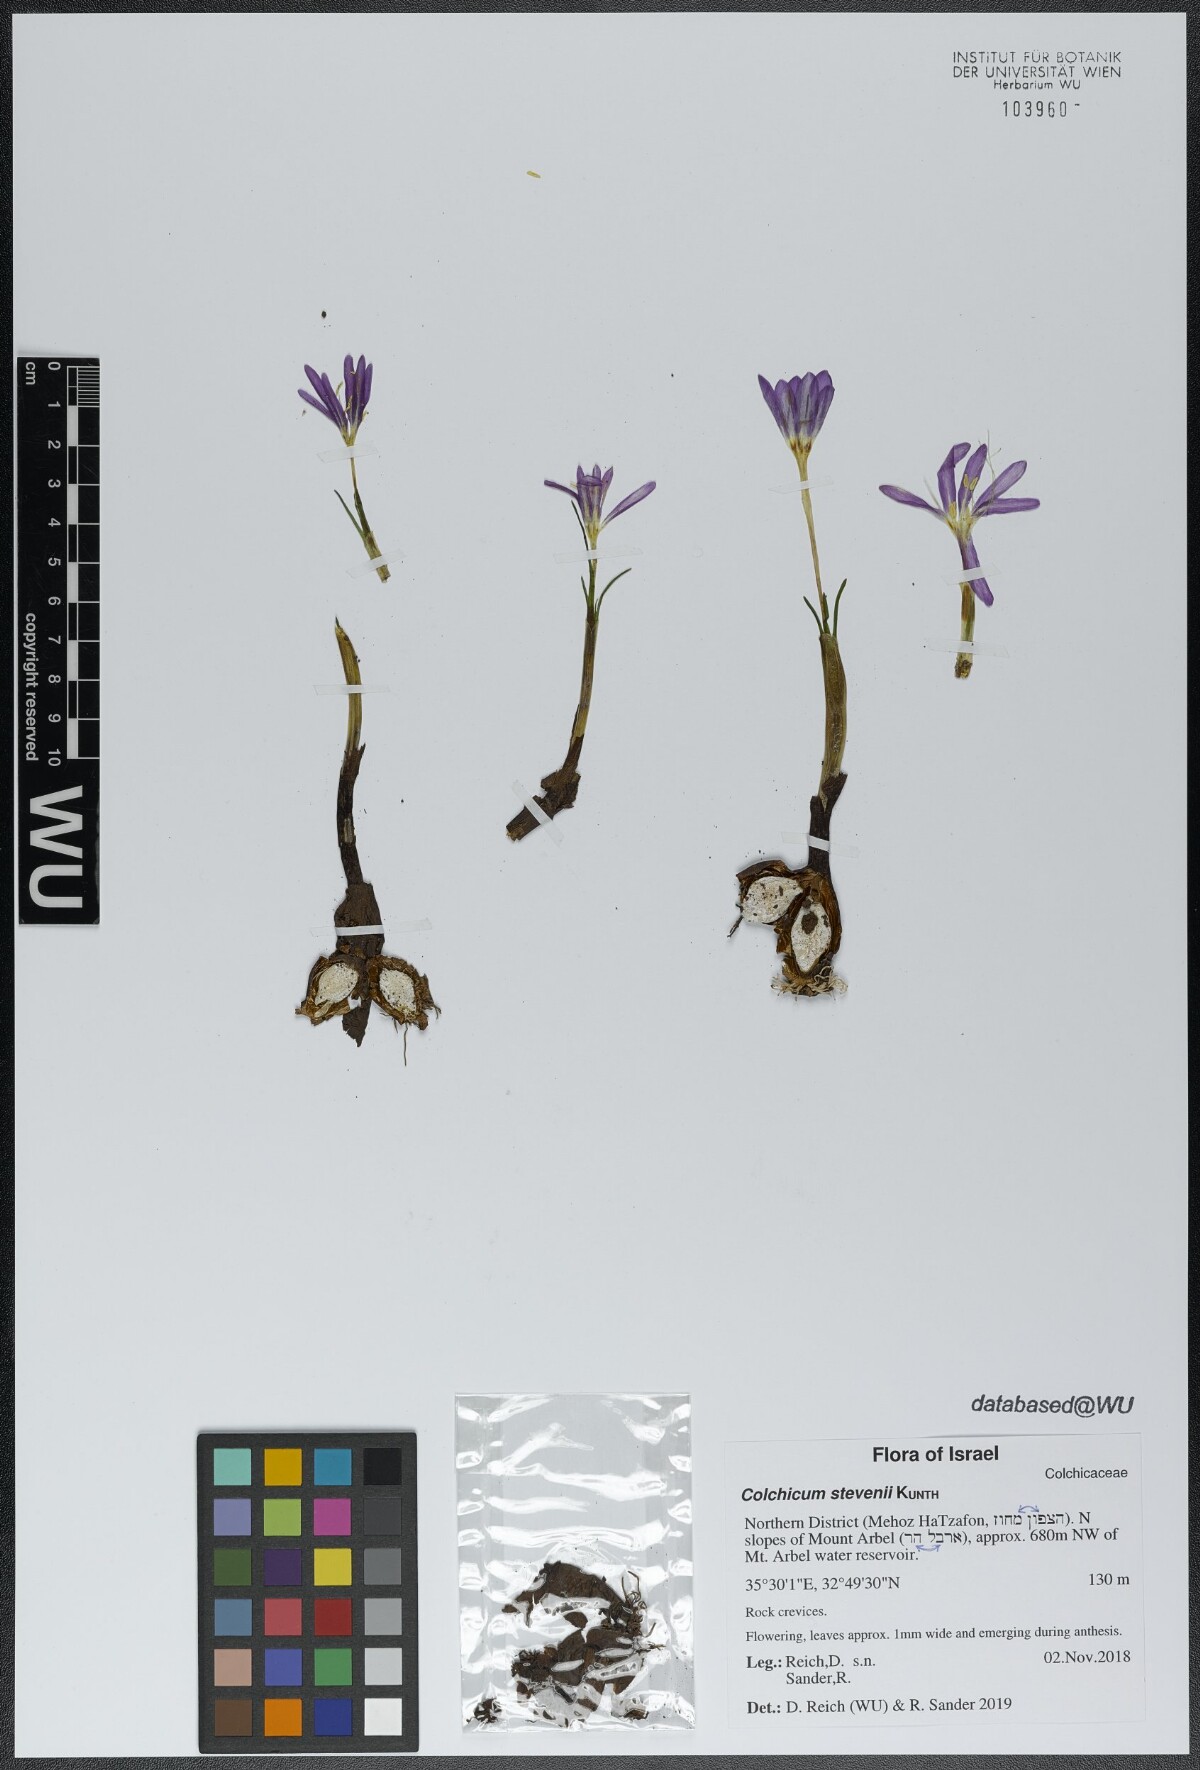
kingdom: Plantae
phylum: Tracheophyta
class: Liliopsida
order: Liliales
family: Colchicaceae
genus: Colchicum
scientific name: Colchicum stevenii
